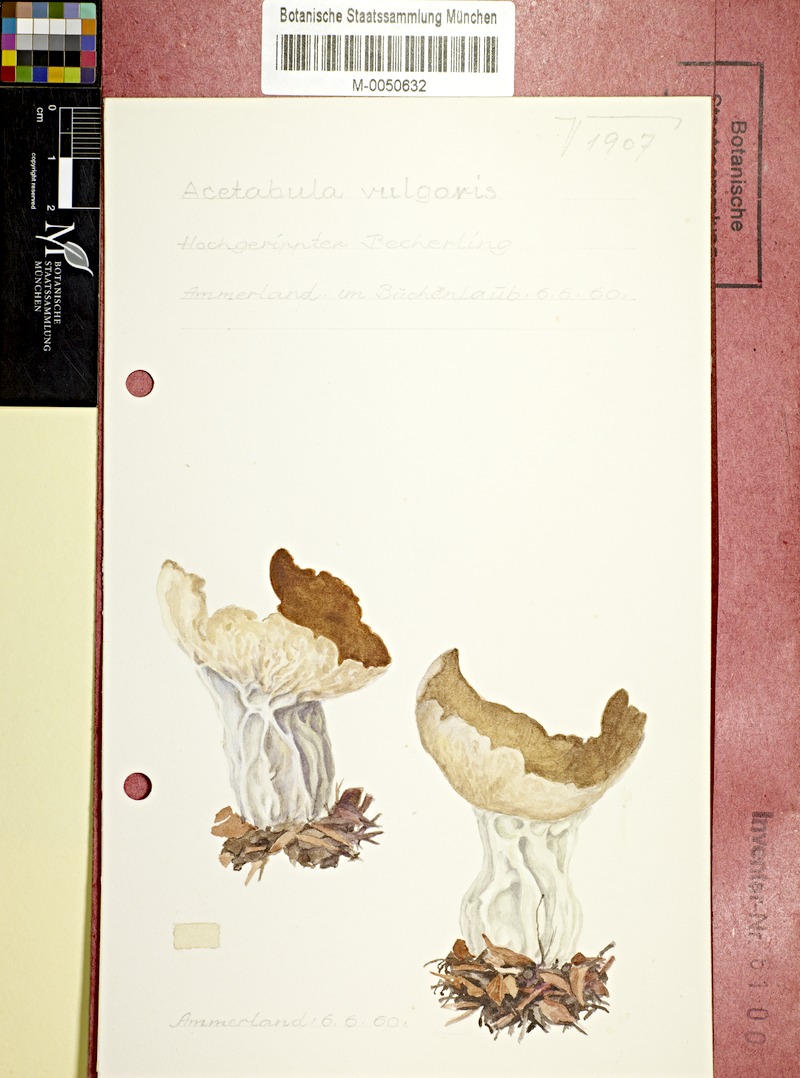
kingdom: Fungi
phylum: Ascomycota
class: Pezizomycetes
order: Pezizales
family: Helvellaceae
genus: Helvella
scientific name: Helvella acetabulum
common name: Vinegar cup
